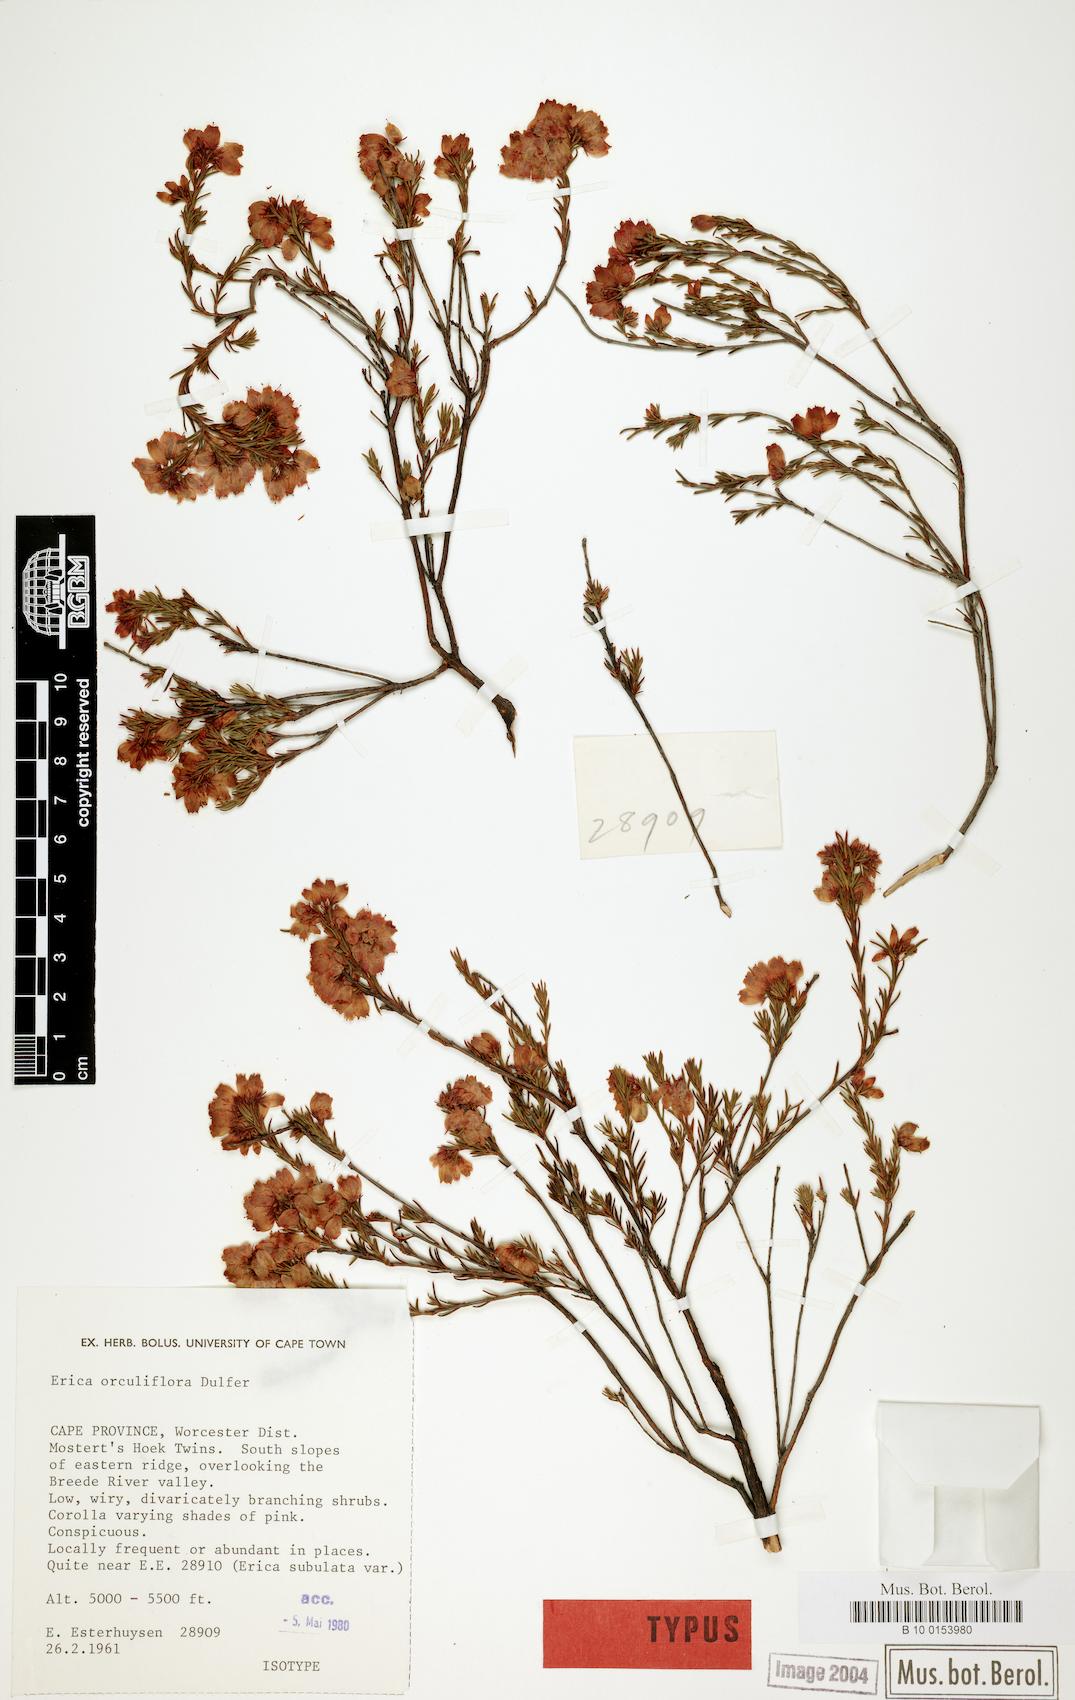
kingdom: Plantae
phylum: Tracheophyta
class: Magnoliopsida
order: Ericales
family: Ericaceae
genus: Erica
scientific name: Erica orculiflora
